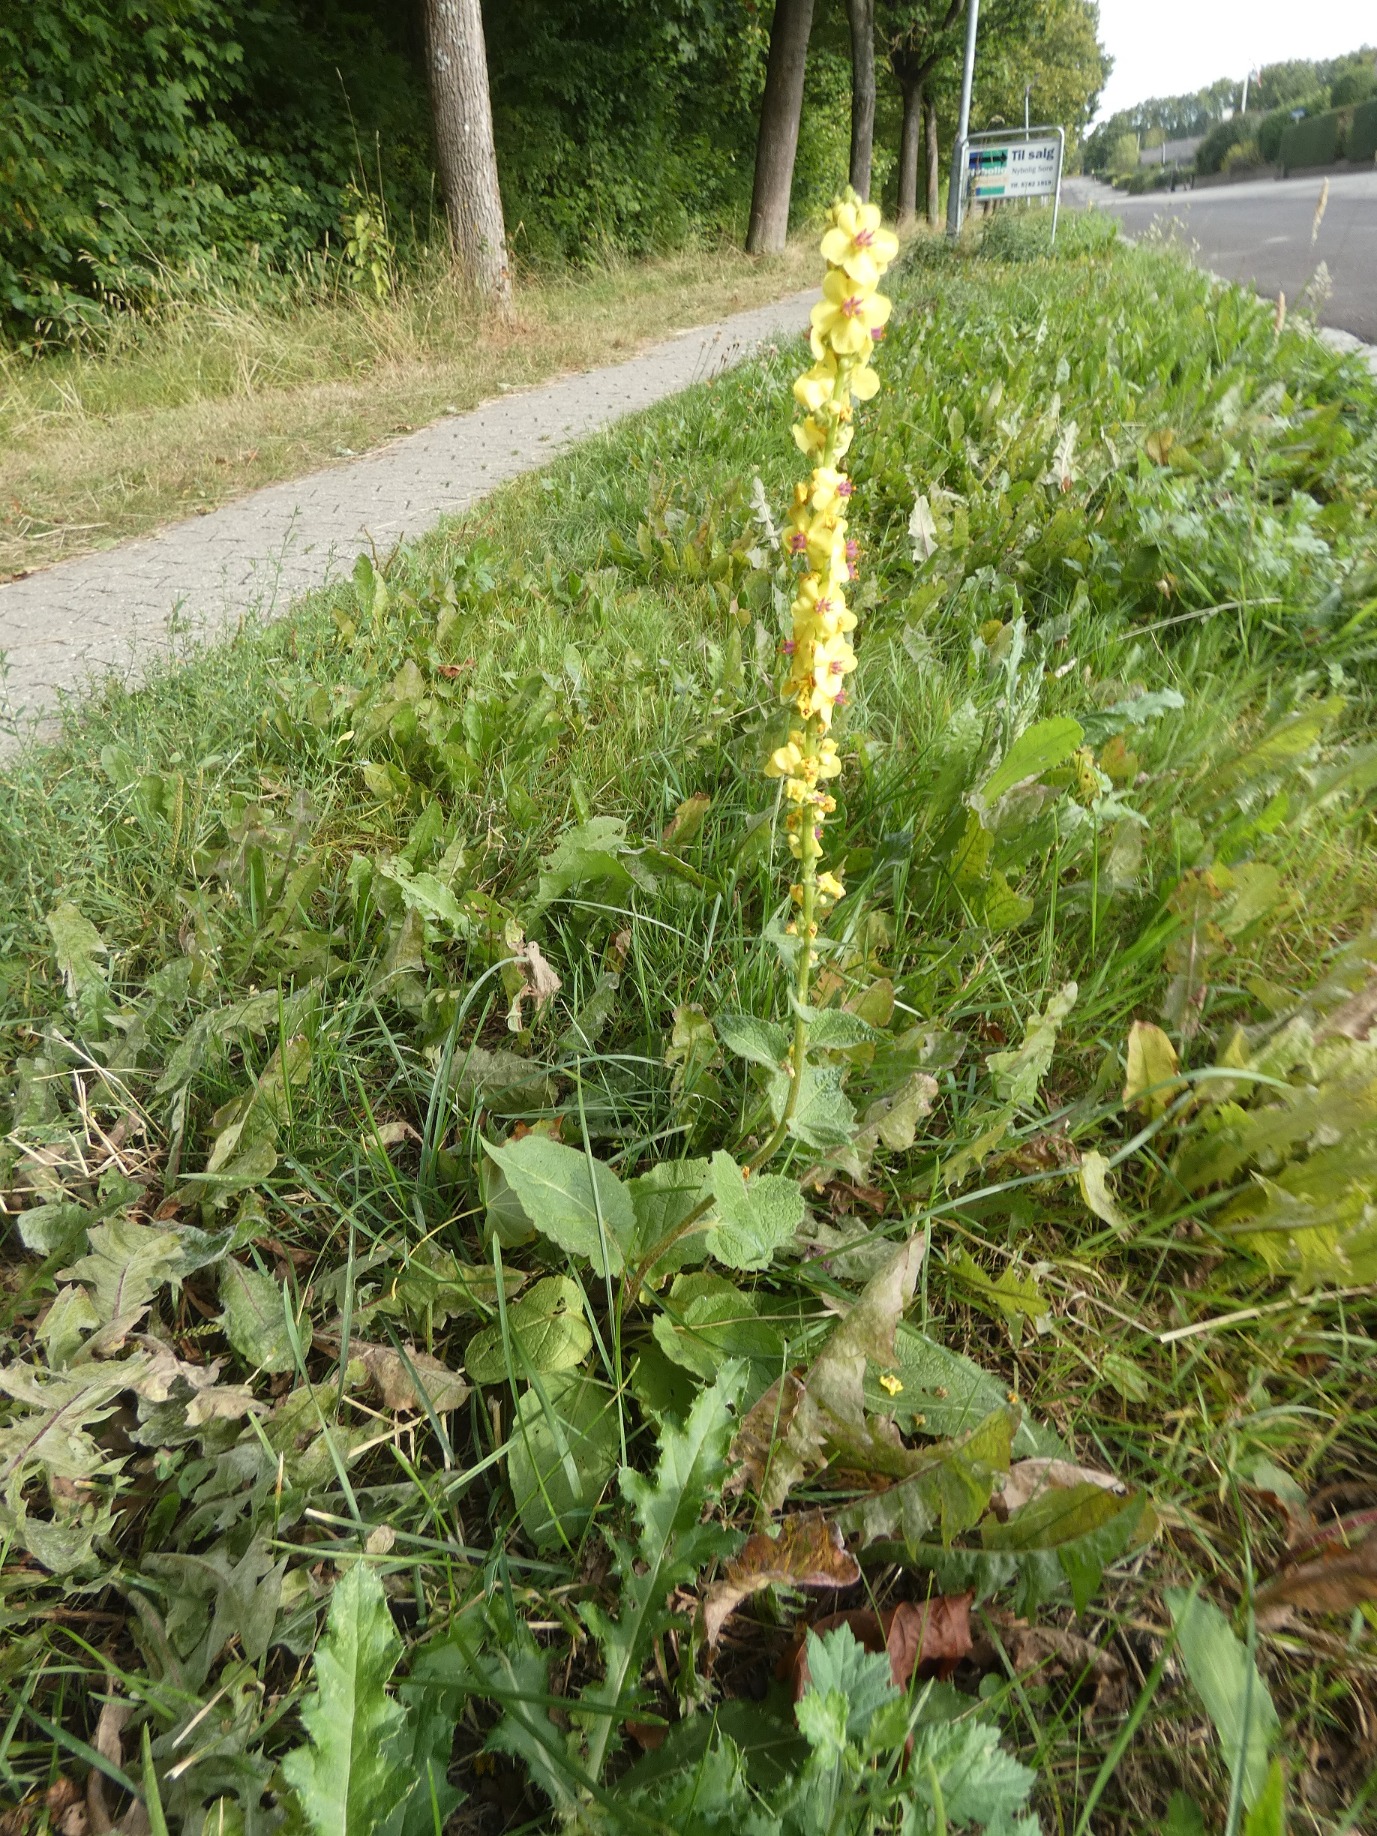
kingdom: Plantae
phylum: Tracheophyta
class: Magnoliopsida
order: Lamiales
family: Scrophulariaceae
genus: Verbascum
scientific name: Verbascum nigrum
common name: Mørk kongelys
